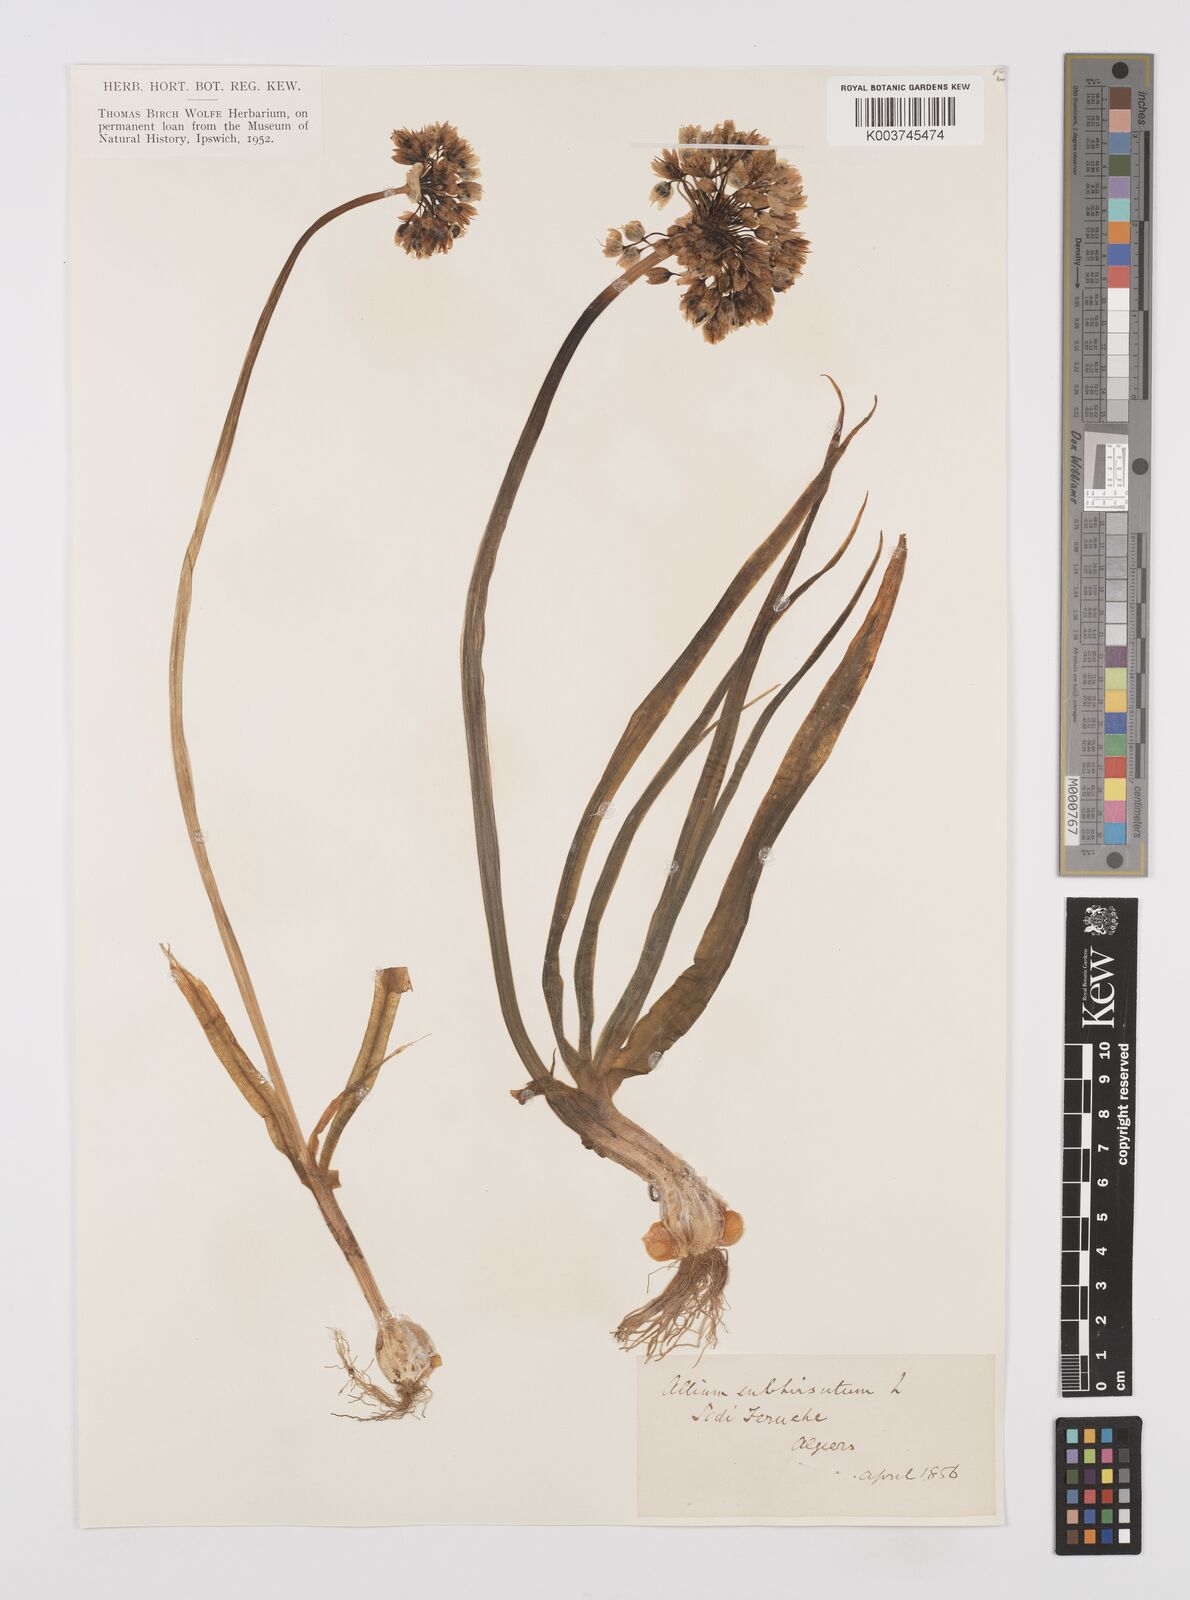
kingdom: Plantae
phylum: Tracheophyta
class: Liliopsida
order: Asparagales
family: Amaryllidaceae
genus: Allium
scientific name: Allium subhirsutum
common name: Hairy garlic
